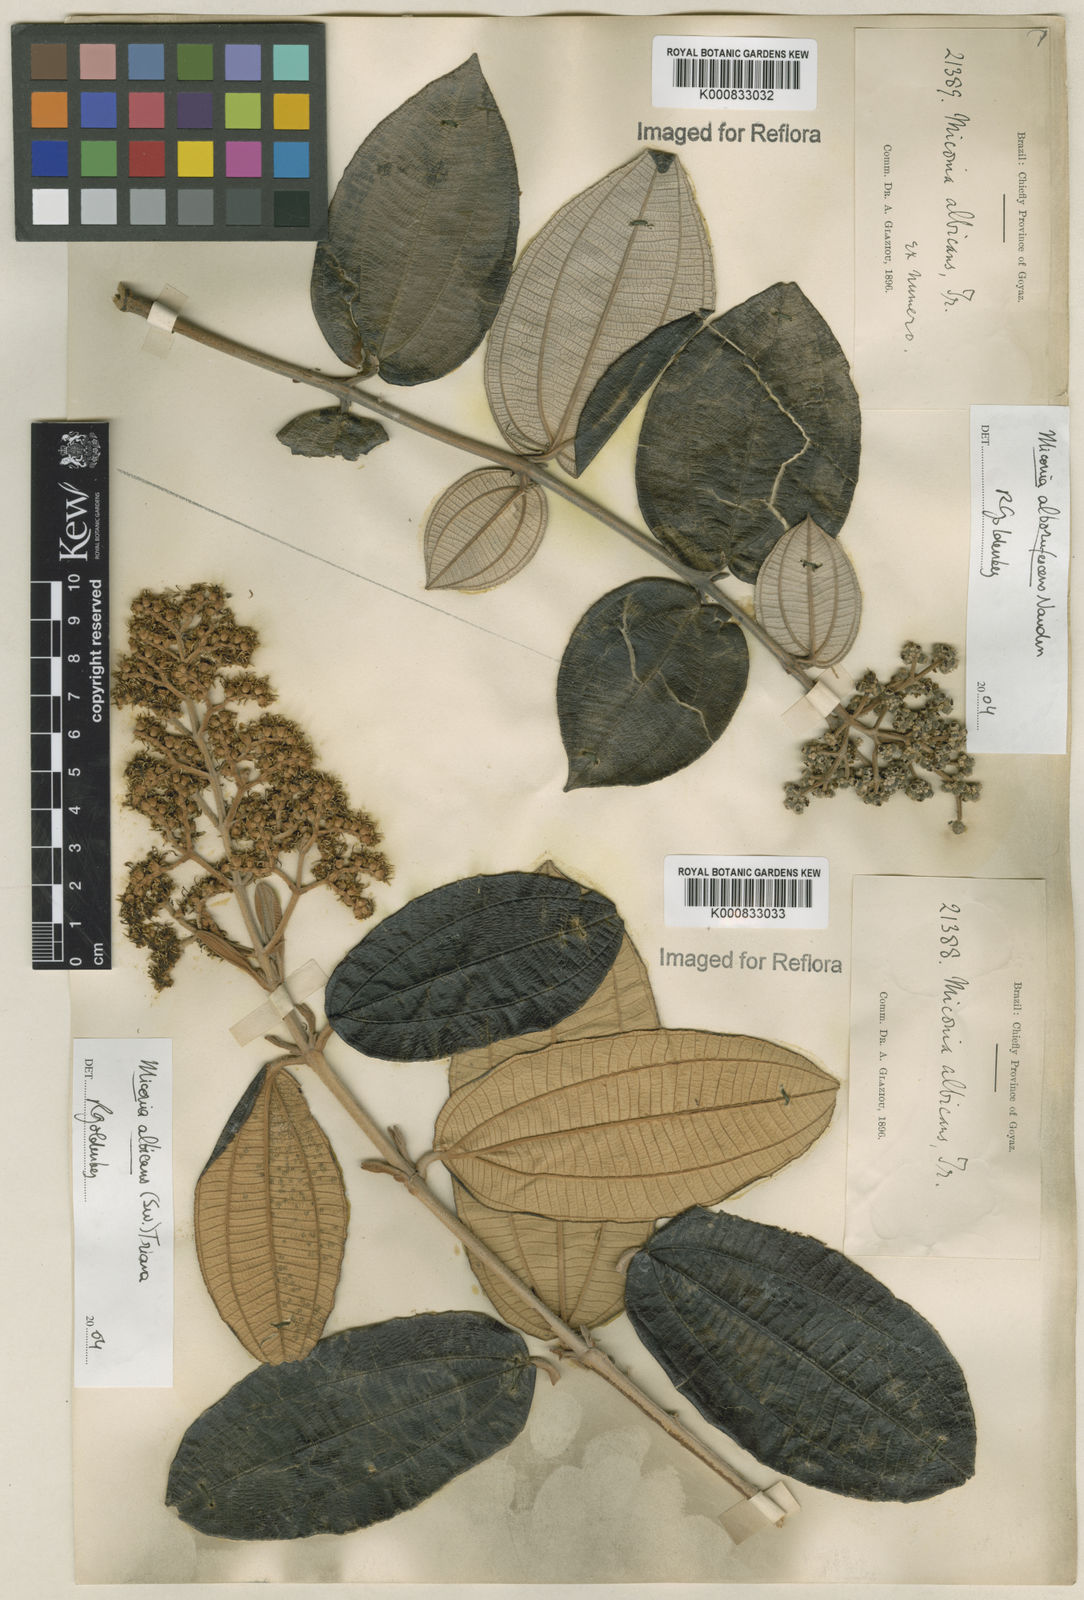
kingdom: Plantae
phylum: Tracheophyta
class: Magnoliopsida
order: Myrtales
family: Melastomataceae
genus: Miconia
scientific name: Miconia albicans
